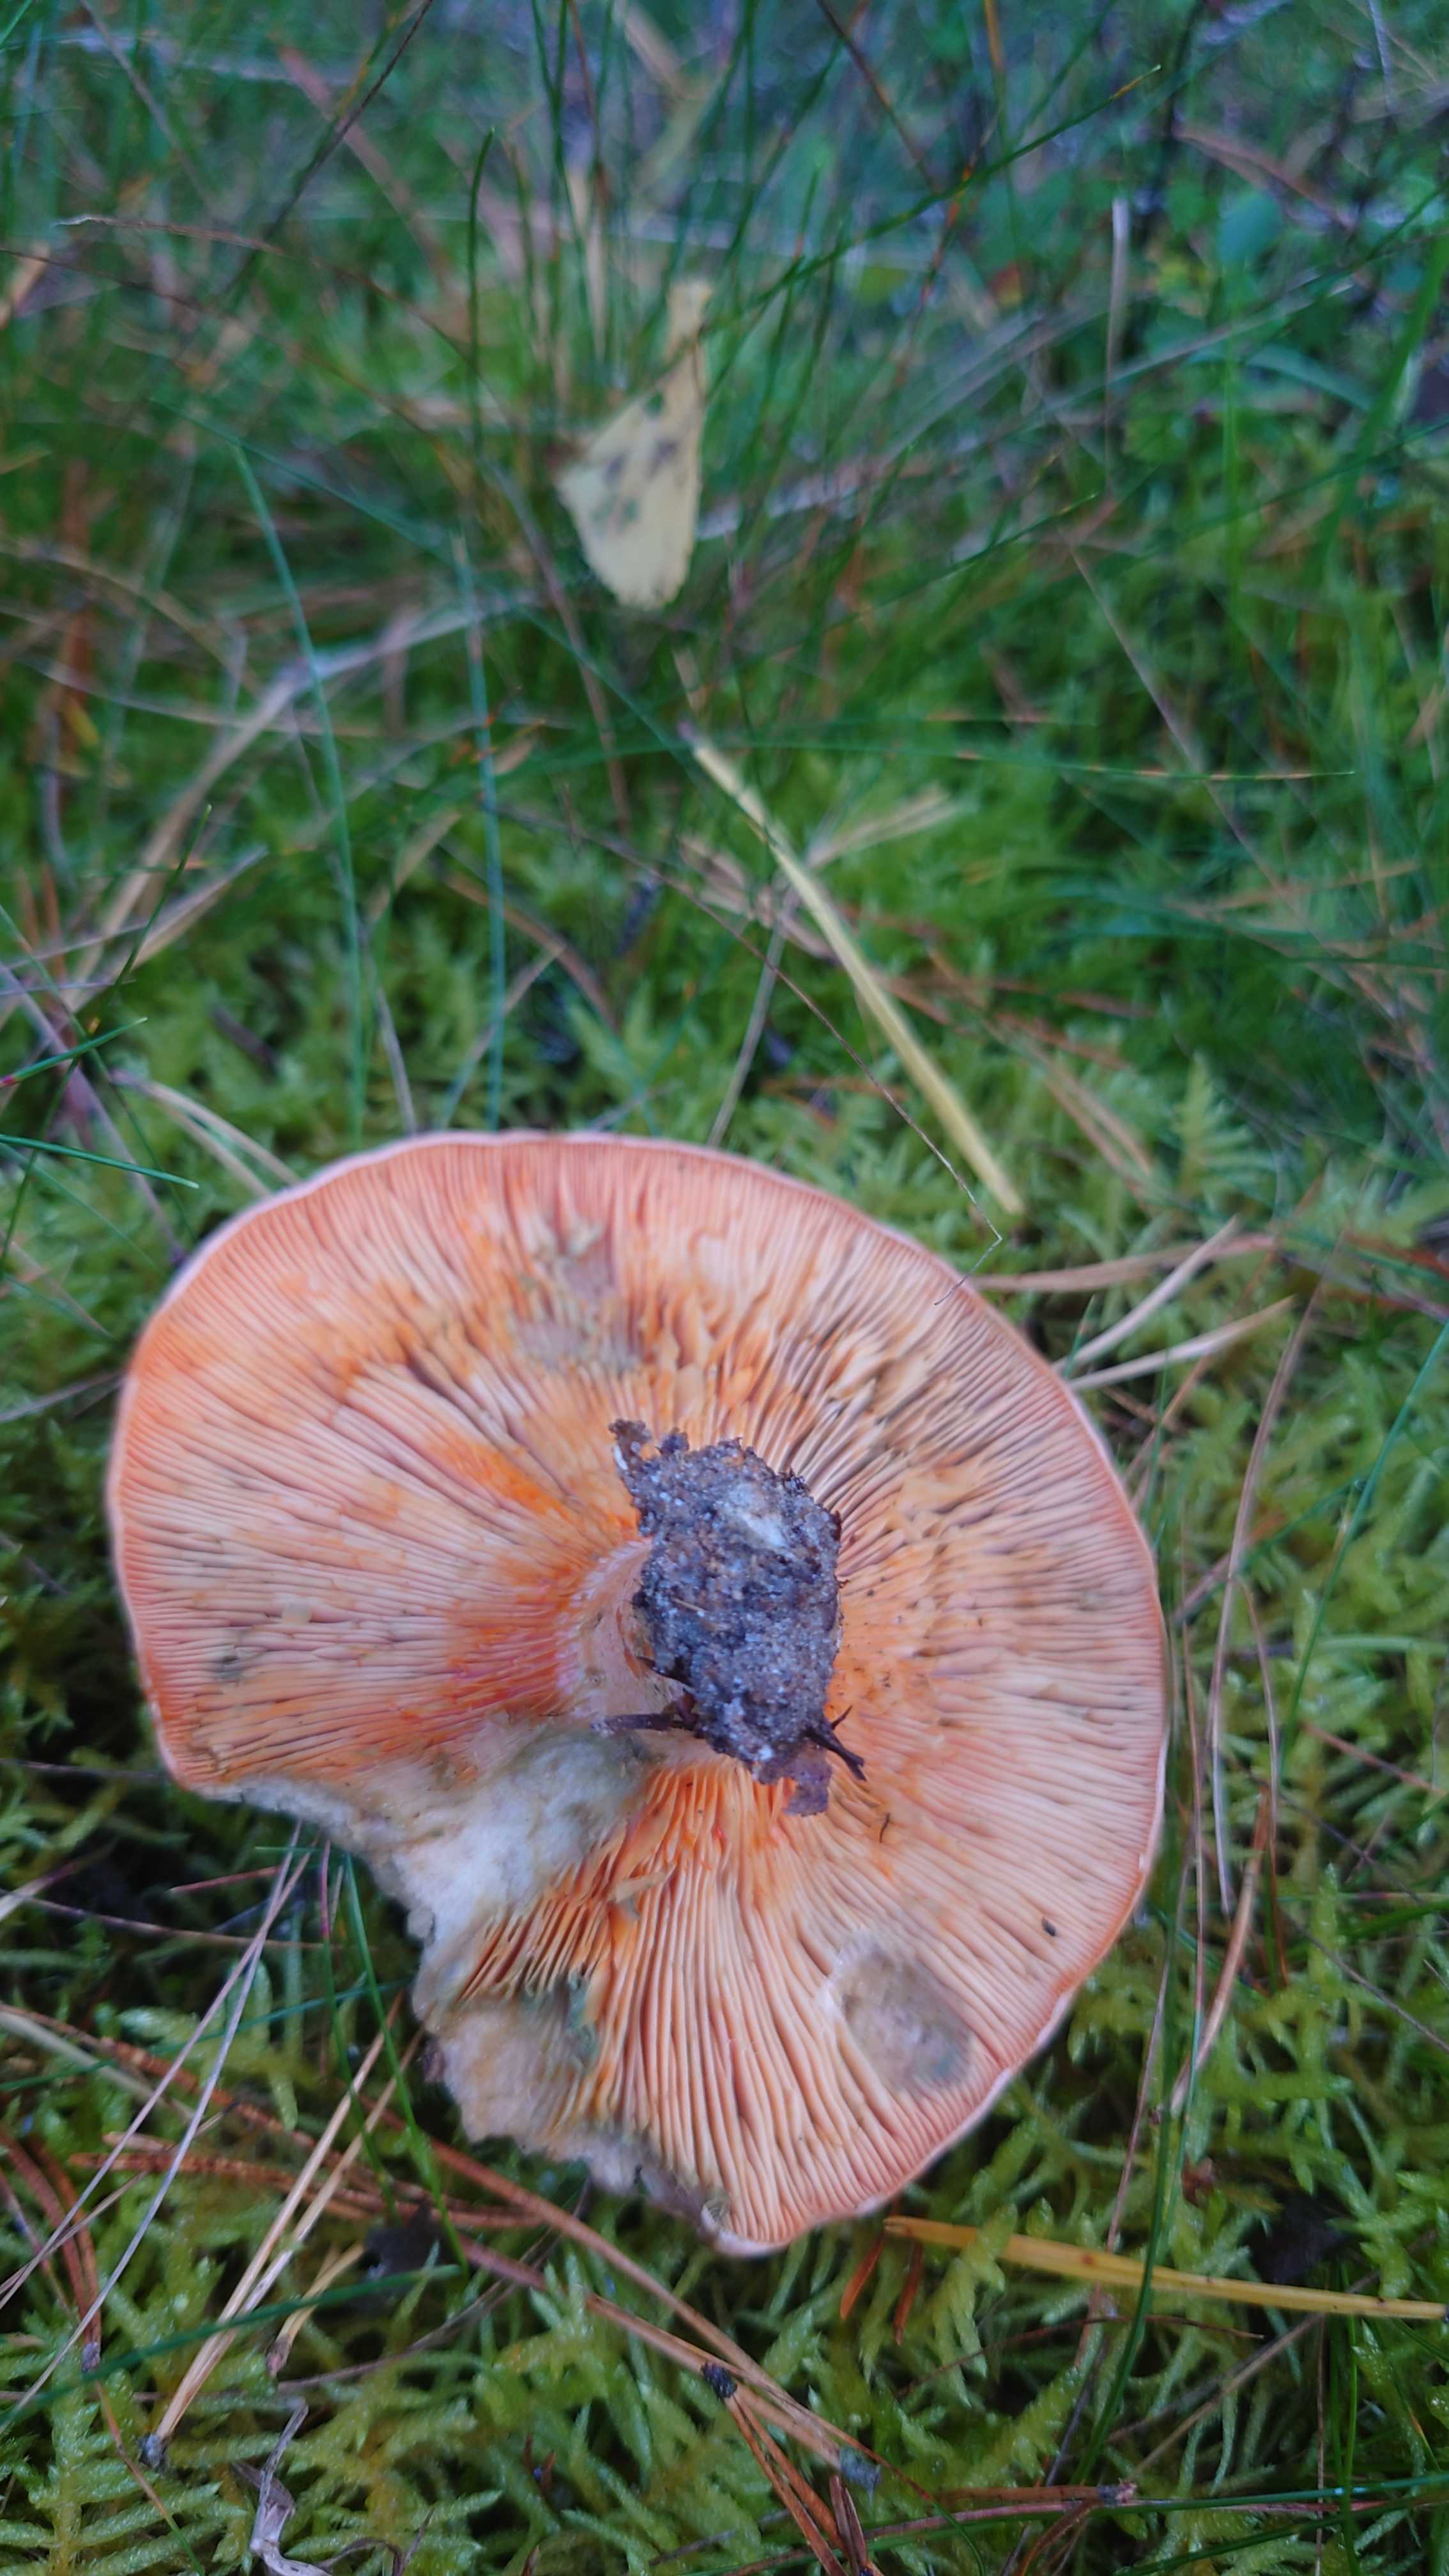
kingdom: Fungi
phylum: Basidiomycota
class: Agaricomycetes
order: Russulales
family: Russulaceae
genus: Lactarius
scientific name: Lactarius deliciosus
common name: velsmagende mælkehat
